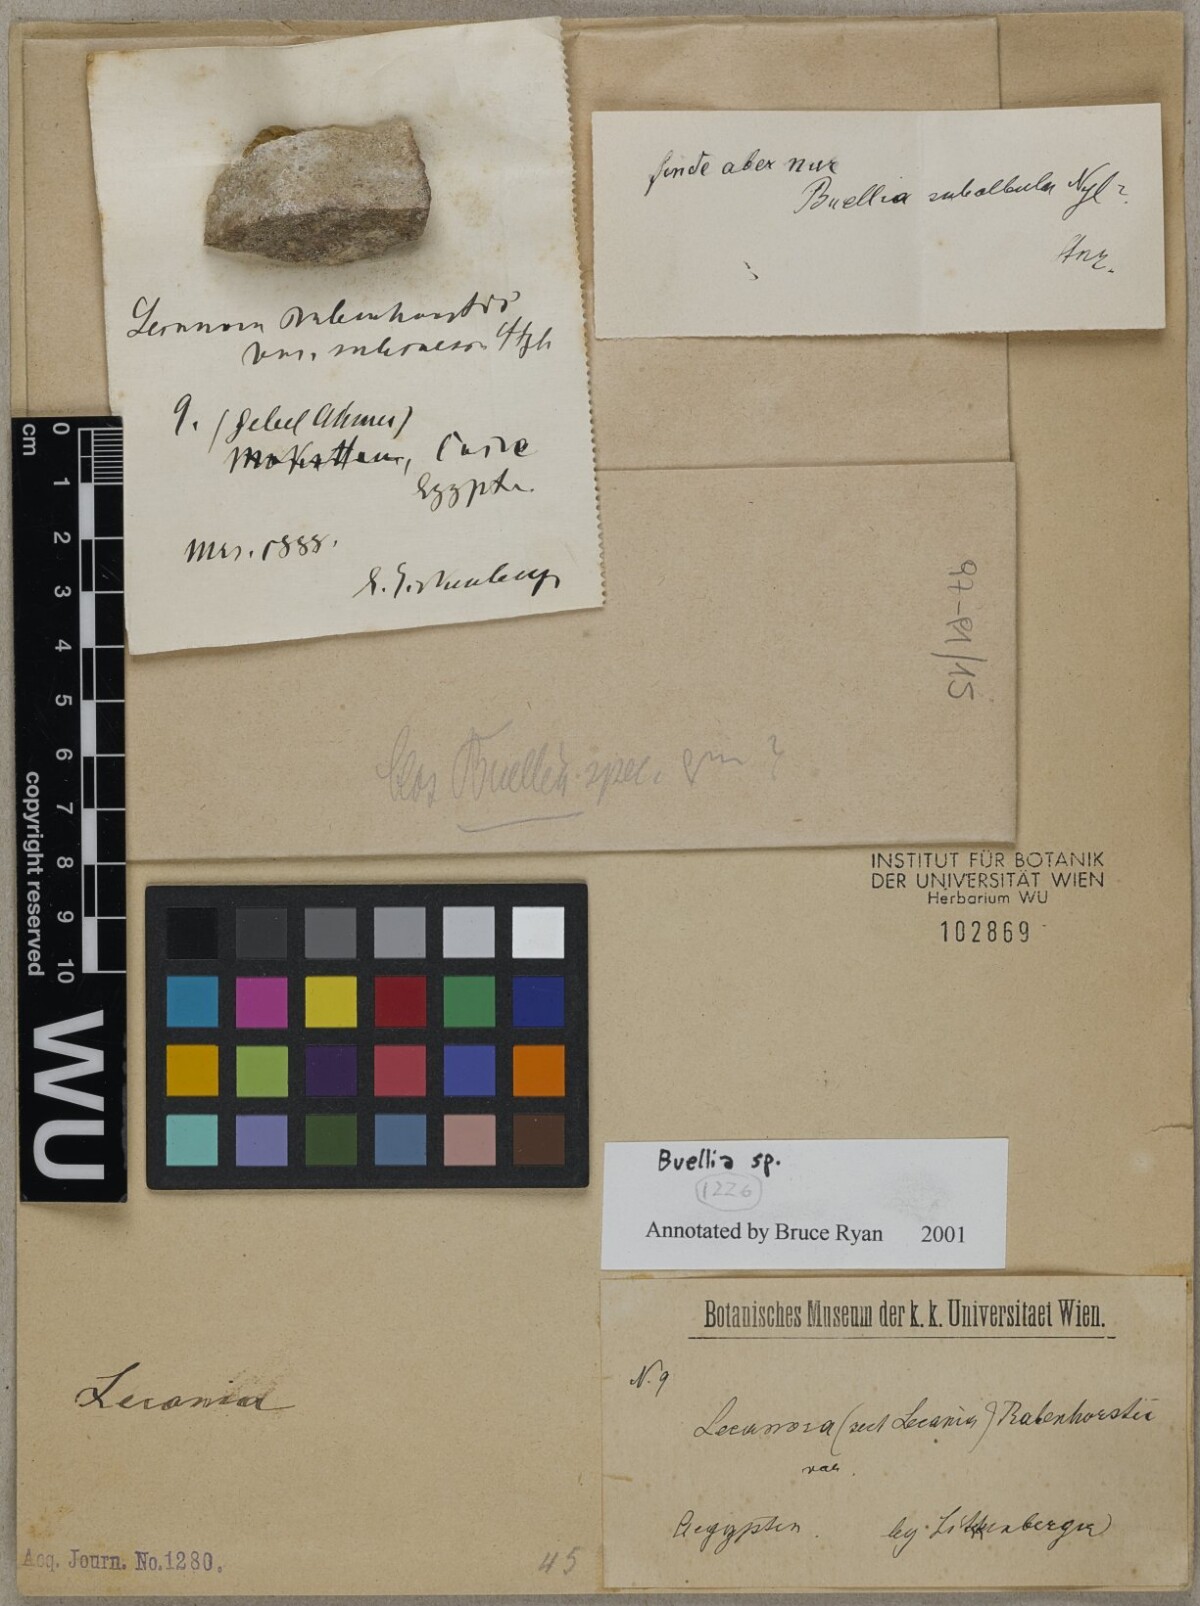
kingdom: Fungi
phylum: Ascomycota
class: Lecanoromycetes
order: Caliciales
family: Caliciaceae
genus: Buellia
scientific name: Buellia
